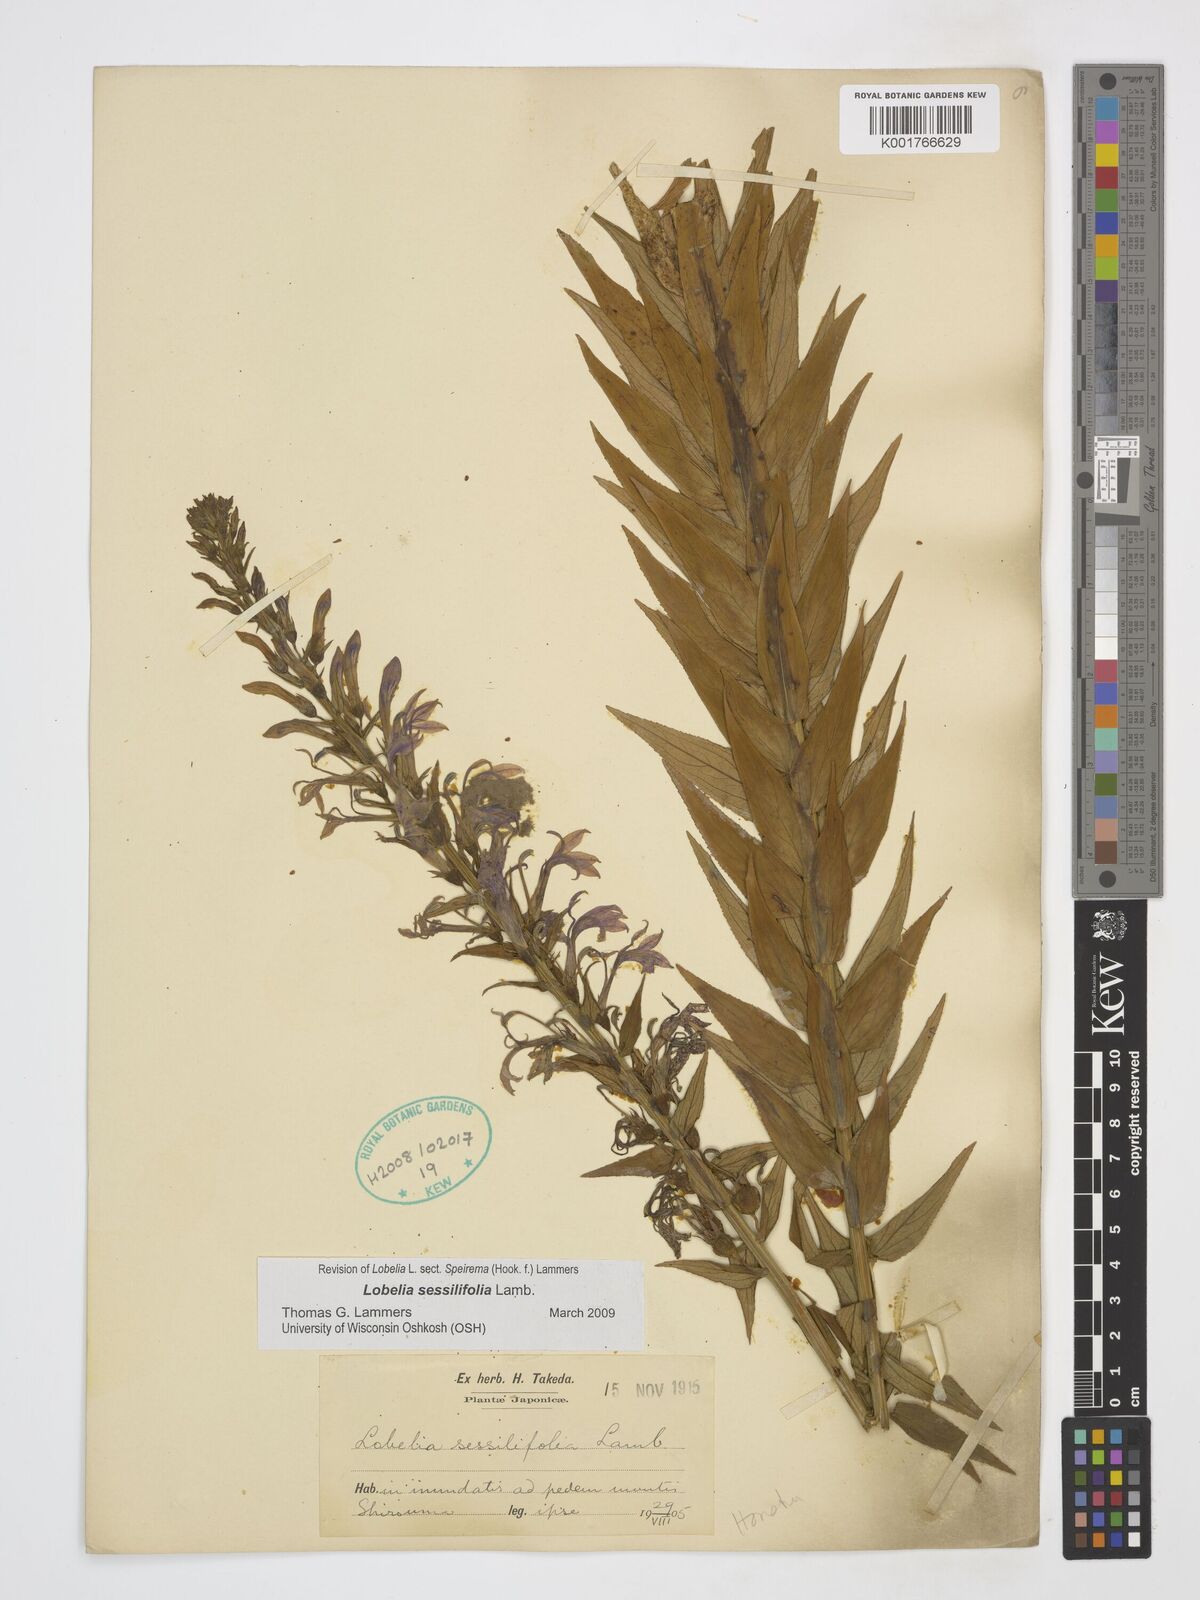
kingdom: Plantae
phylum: Tracheophyta
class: Magnoliopsida
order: Asterales
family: Campanulaceae
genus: Lobelia
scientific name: Lobelia sessilifolia
